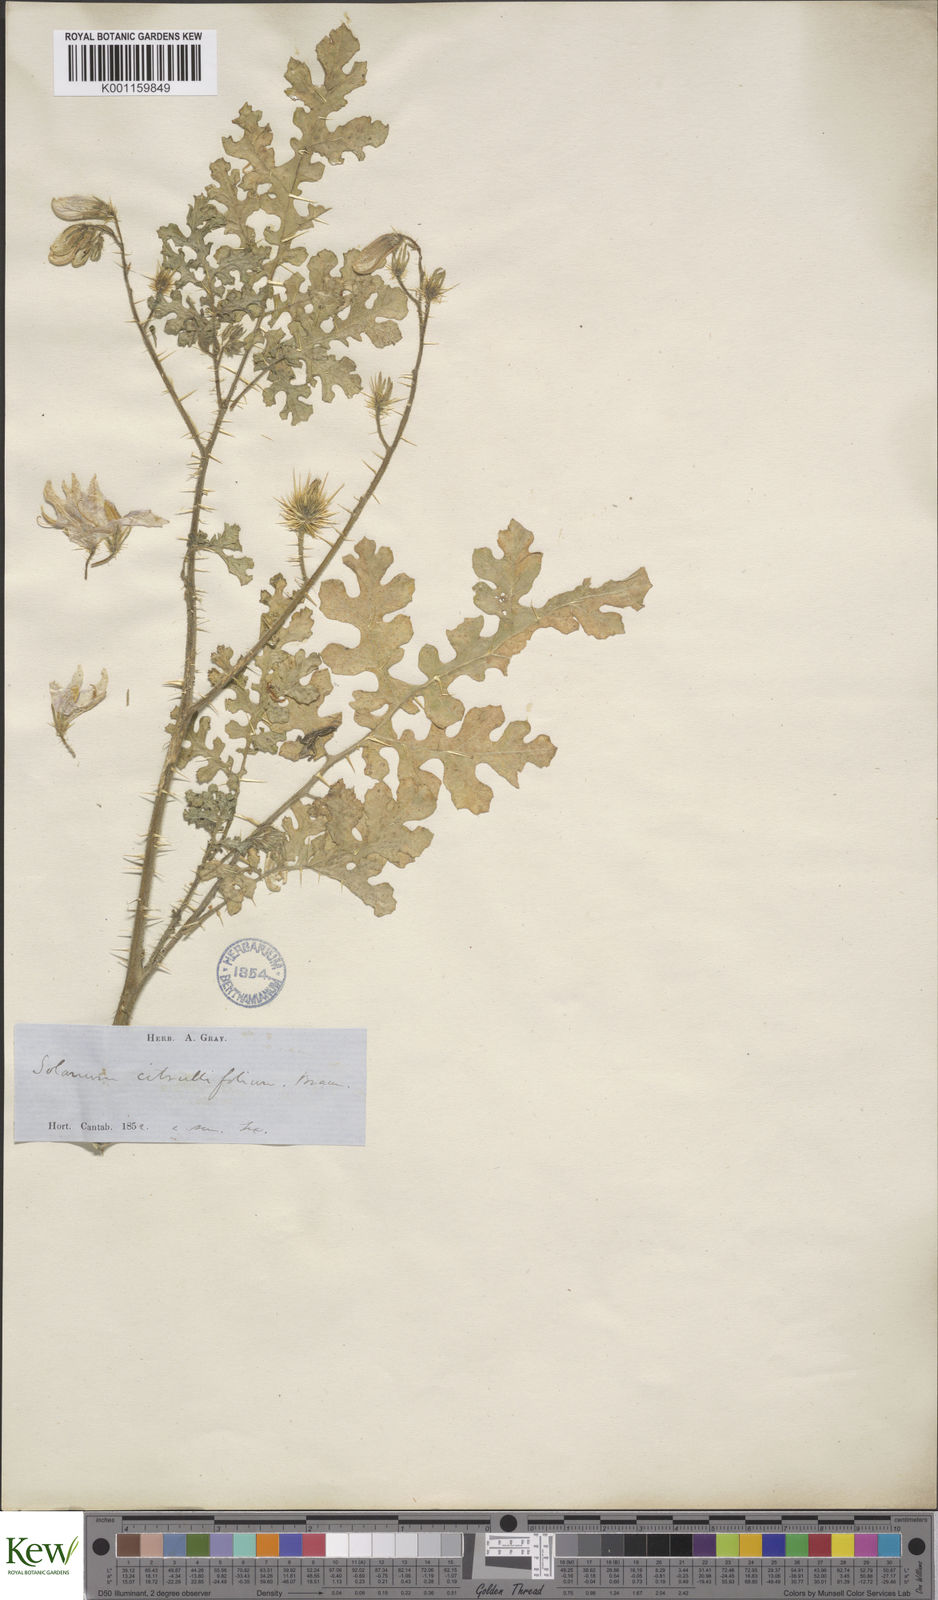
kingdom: Plantae
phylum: Tracheophyta
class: Magnoliopsida
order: Solanales
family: Solanaceae
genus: Solanum
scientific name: Solanum heterodoxum
